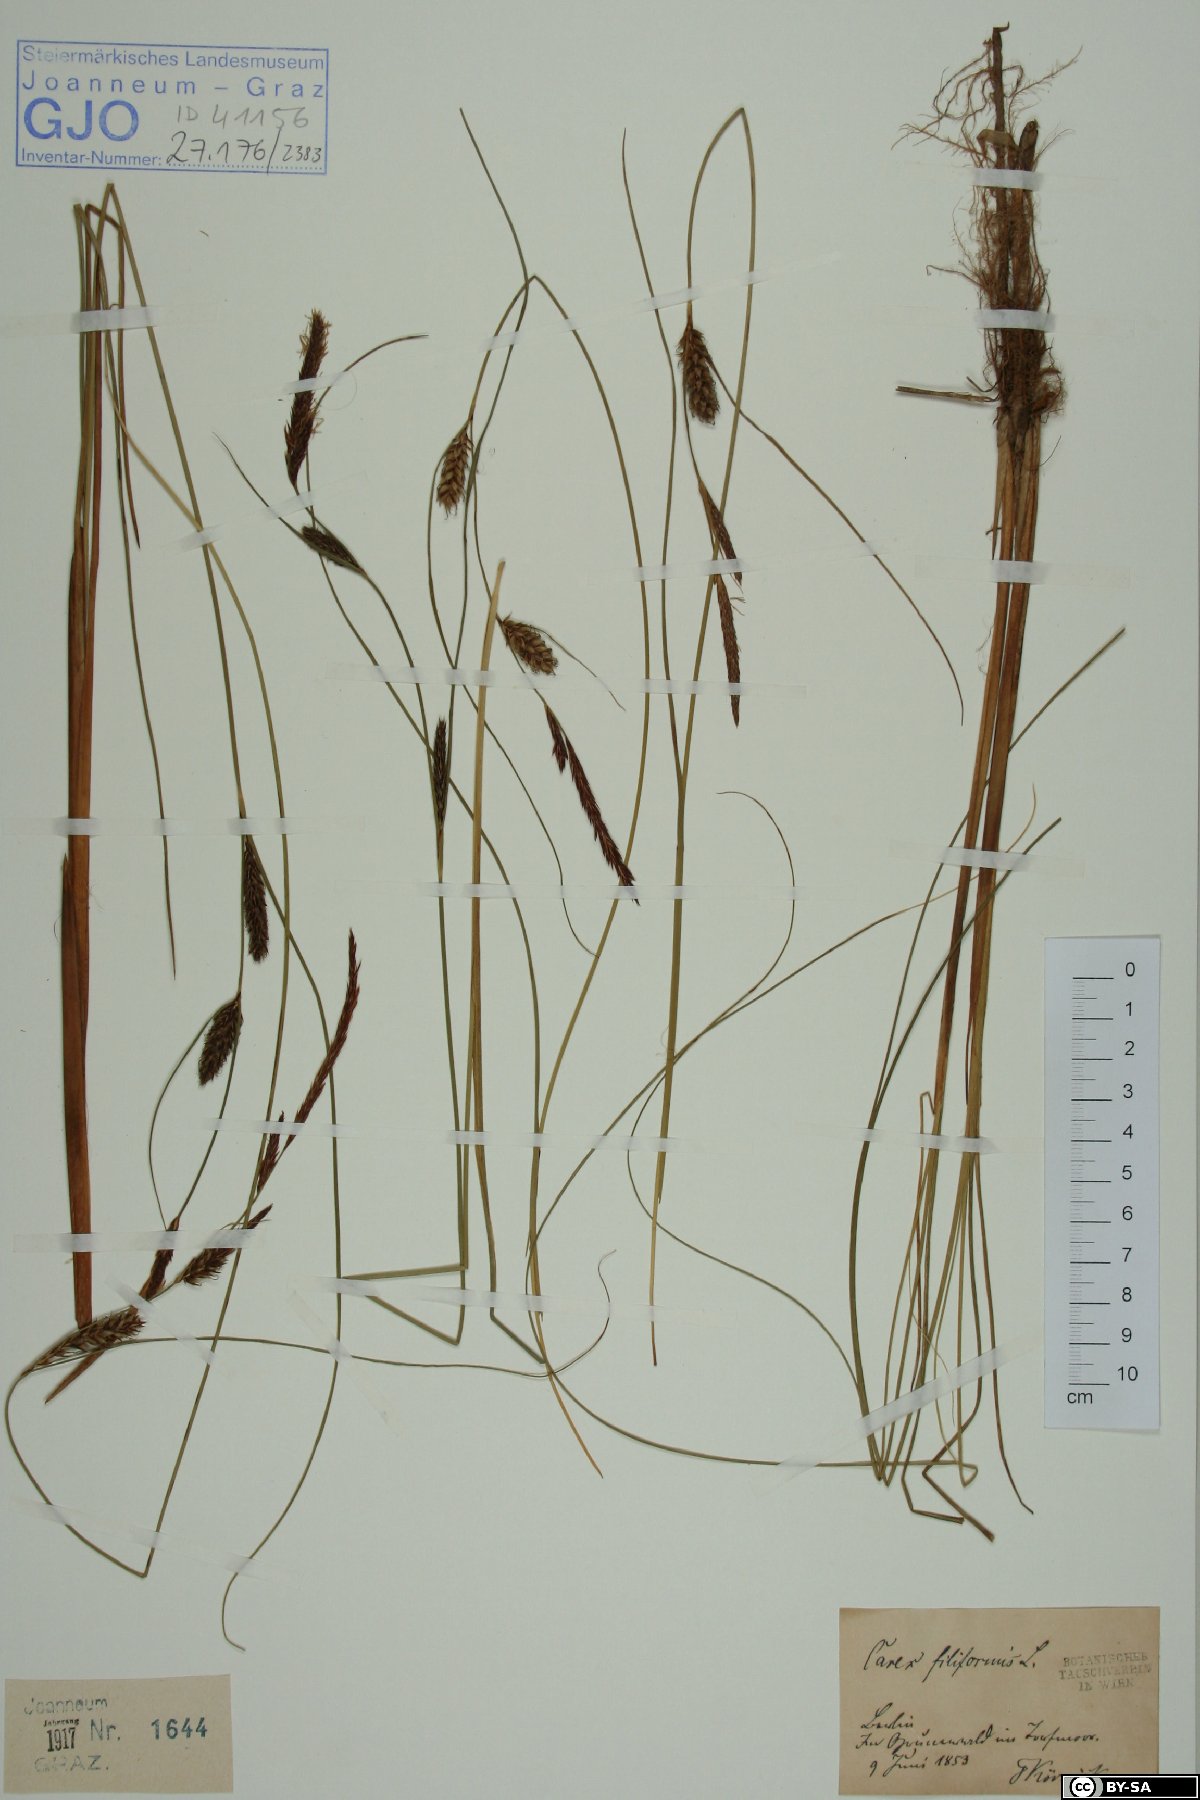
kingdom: Plantae
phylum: Tracheophyta
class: Liliopsida
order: Poales
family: Cyperaceae
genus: Carex
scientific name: Carex montana
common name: Soft-leaved sedge
